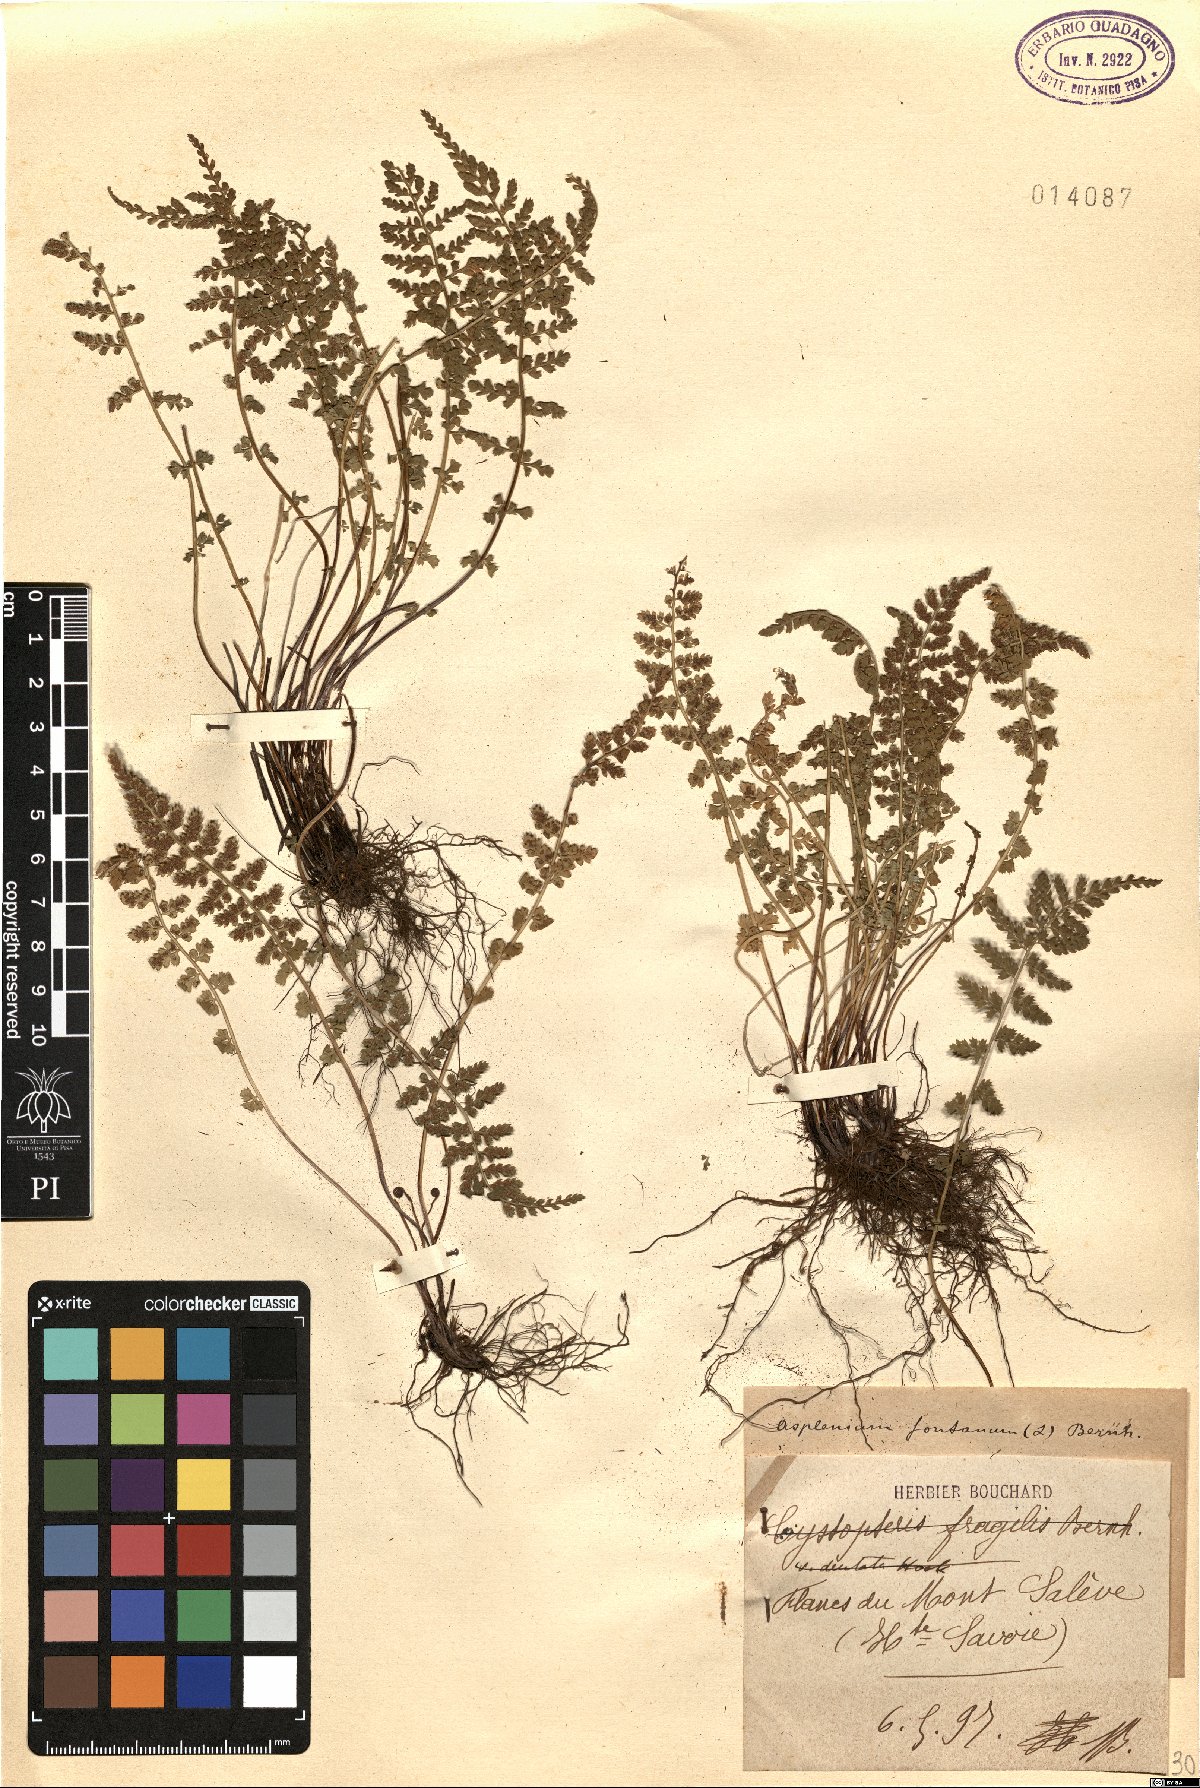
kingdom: Plantae
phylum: Tracheophyta
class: Polypodiopsida
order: Polypodiales
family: Aspleniaceae
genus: Asplenium
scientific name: Asplenium fontanum
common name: Fountain spleenwort
